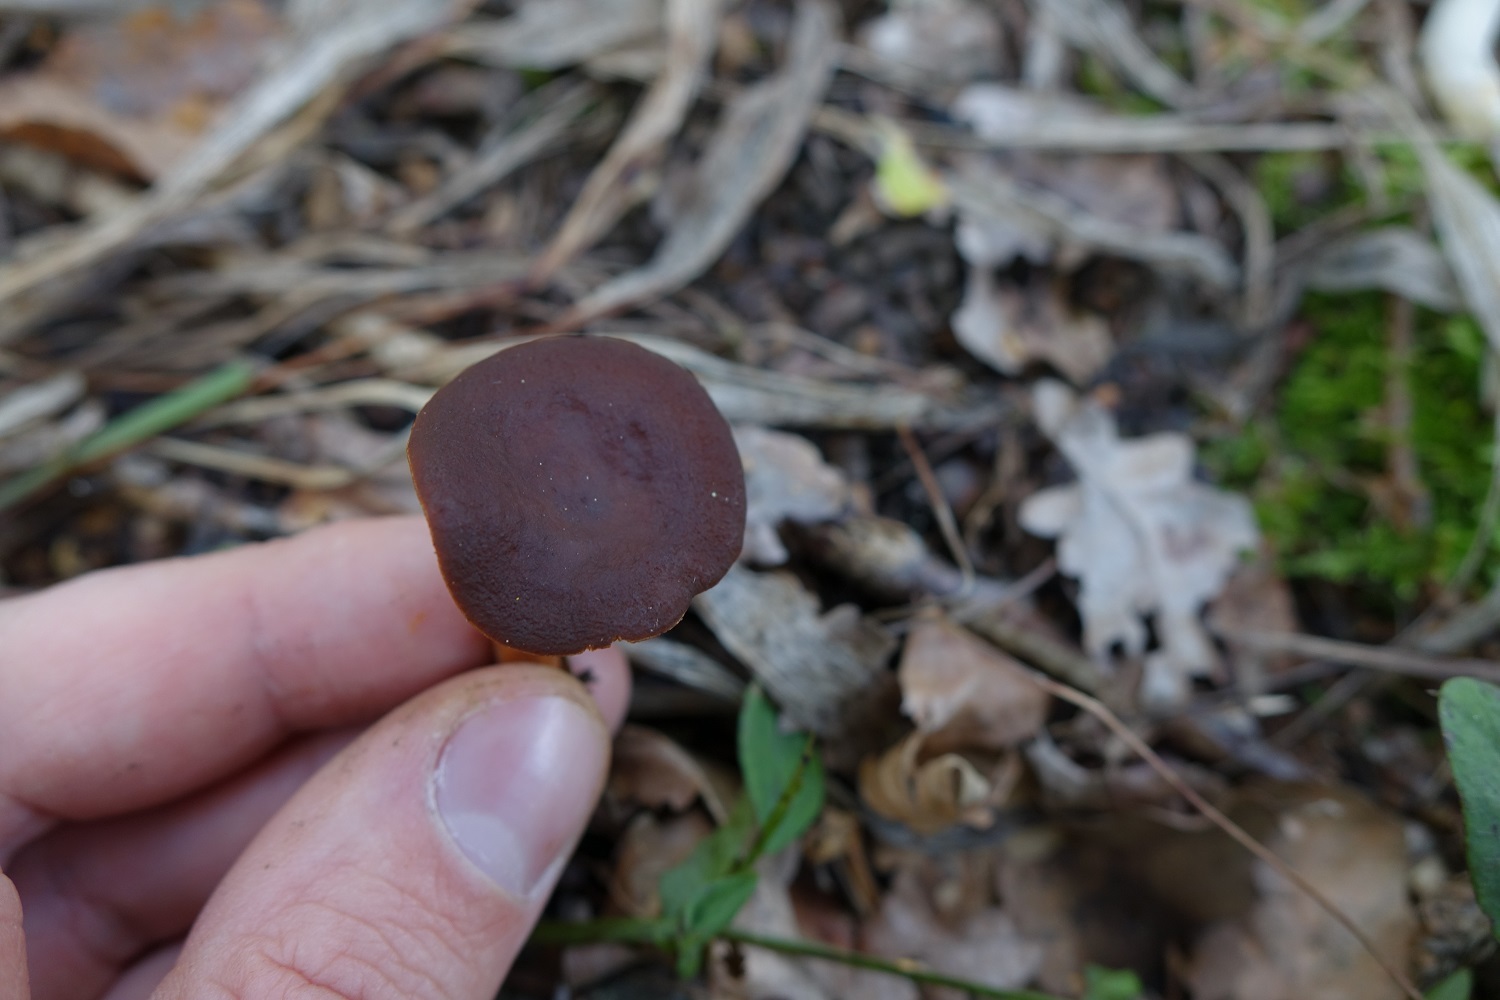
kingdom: Fungi
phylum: Basidiomycota
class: Agaricomycetes
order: Russulales
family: Russulaceae
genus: Lactarius
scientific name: Lactarius serifluus
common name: Watery milk-cap
